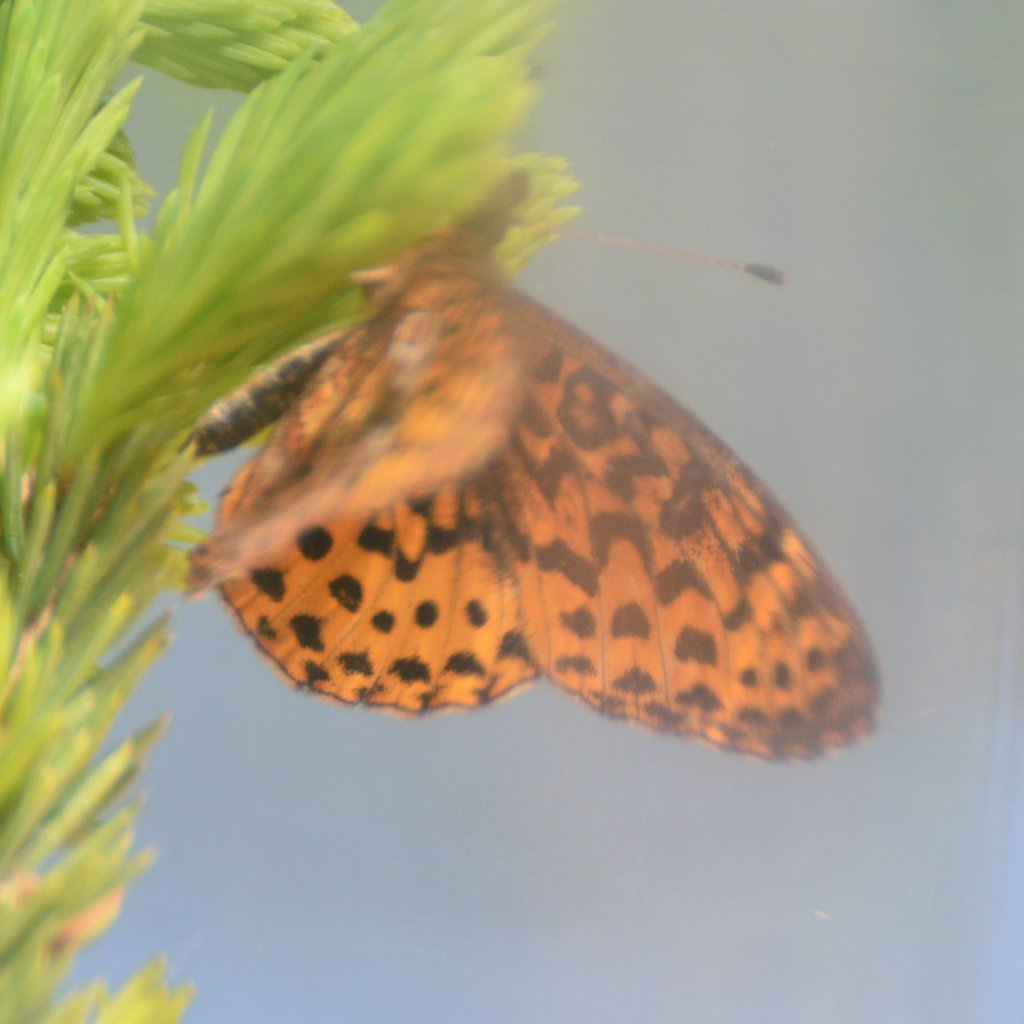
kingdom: Animalia
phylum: Arthropoda
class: Insecta
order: Lepidoptera
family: Nymphalidae
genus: Clossiana
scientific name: Clossiana toddi
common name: Meadow Fritillary
